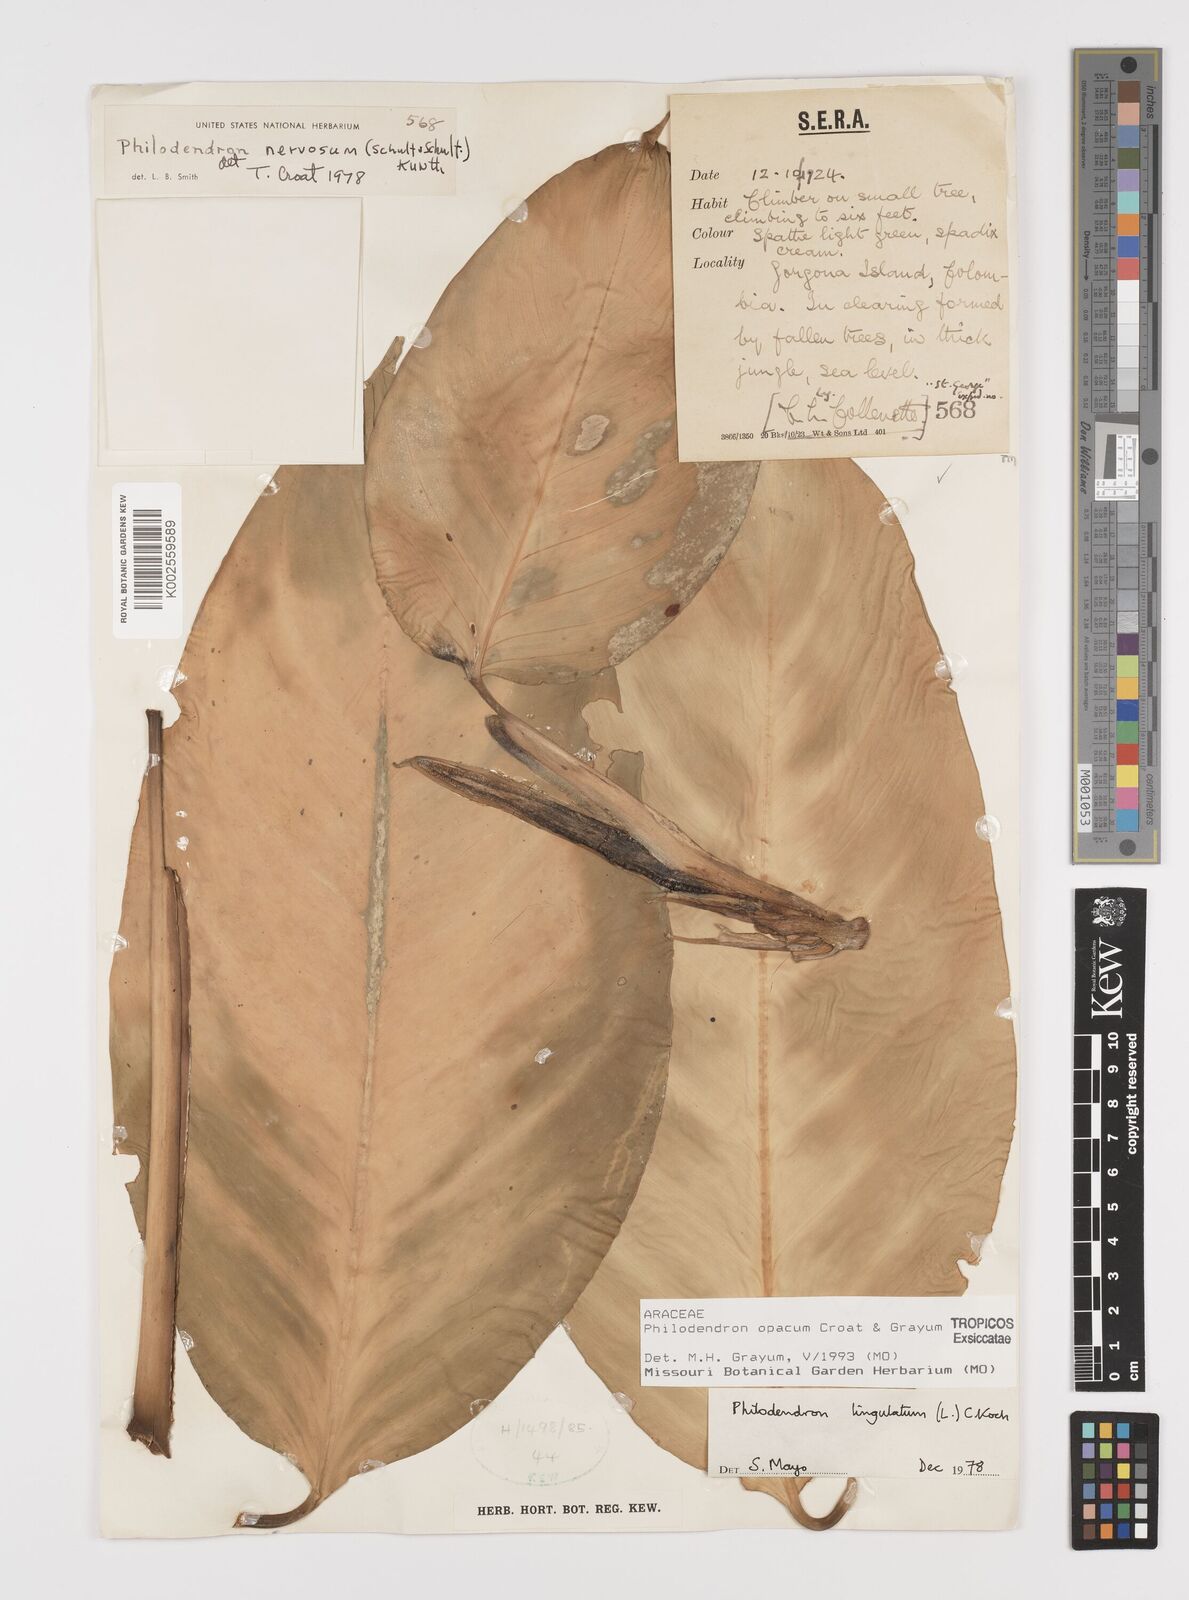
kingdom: Plantae
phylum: Tracheophyta
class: Liliopsida
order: Alismatales
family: Araceae
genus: Philodendron
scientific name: Philodendron opacum
